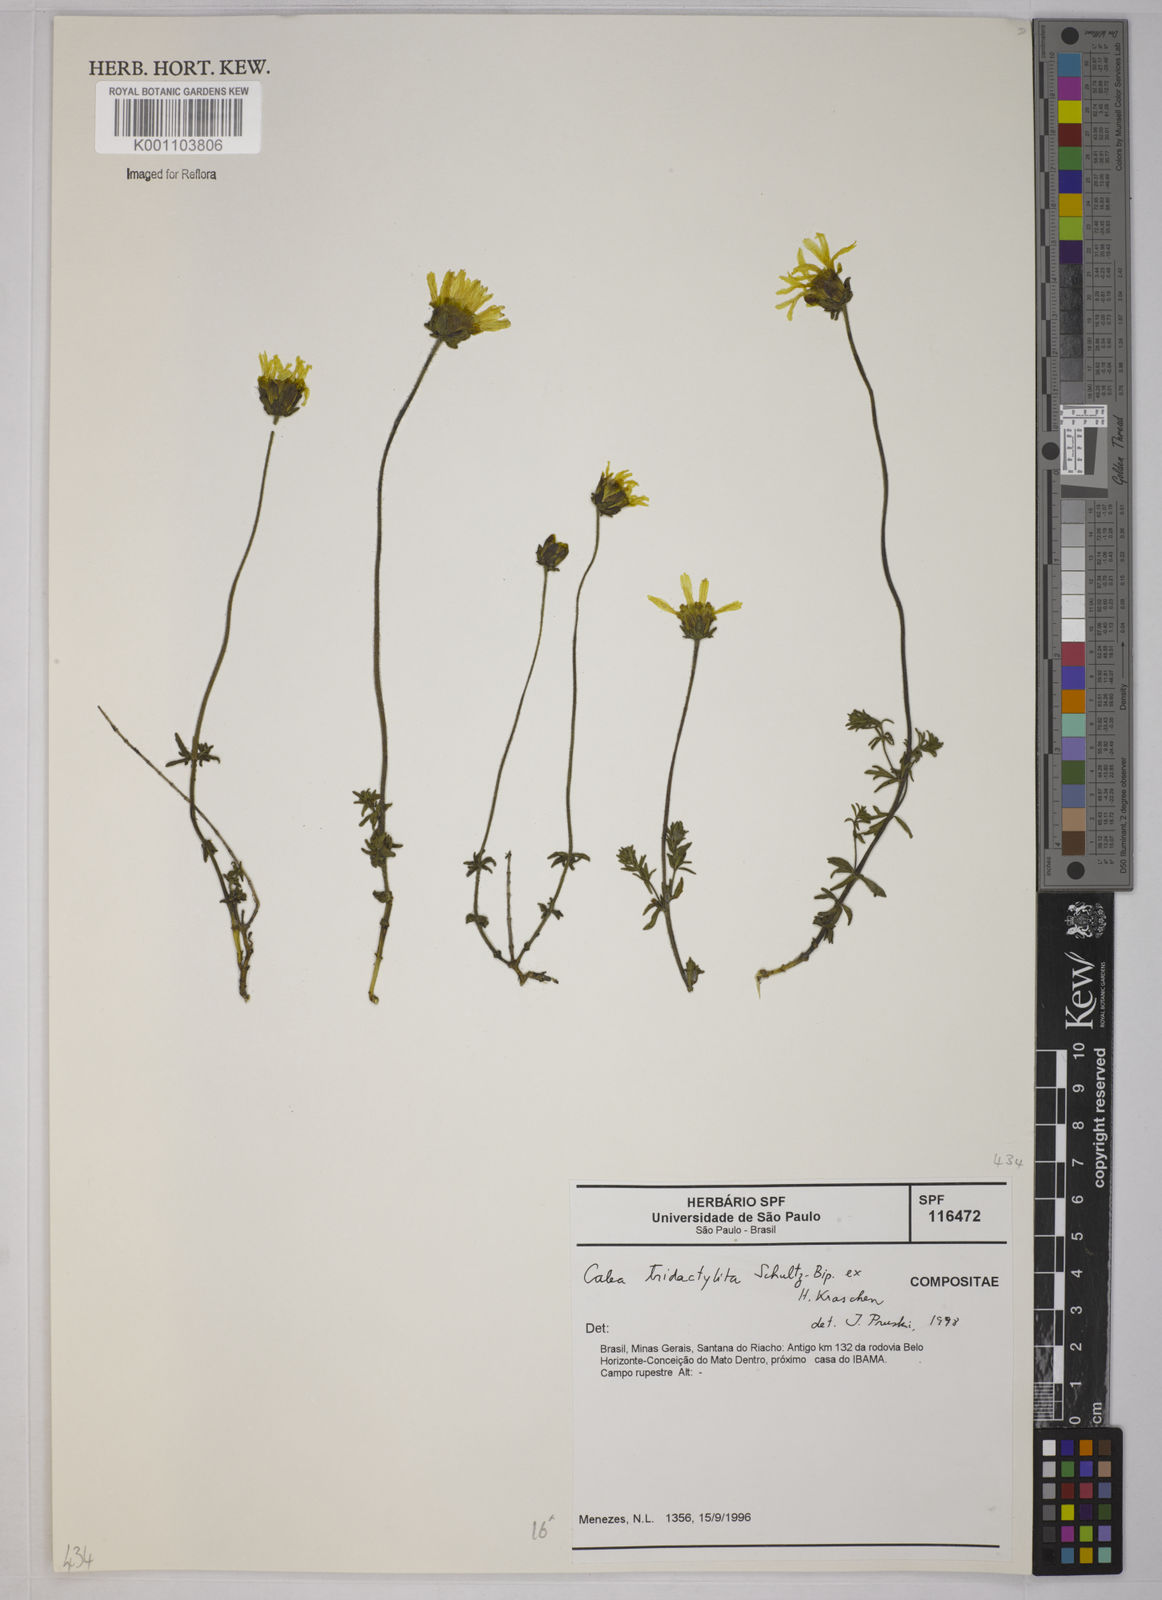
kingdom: Plantae
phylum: Tracheophyta
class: Magnoliopsida
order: Asterales
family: Asteraceae
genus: Calea
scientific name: Calea tridactylita
